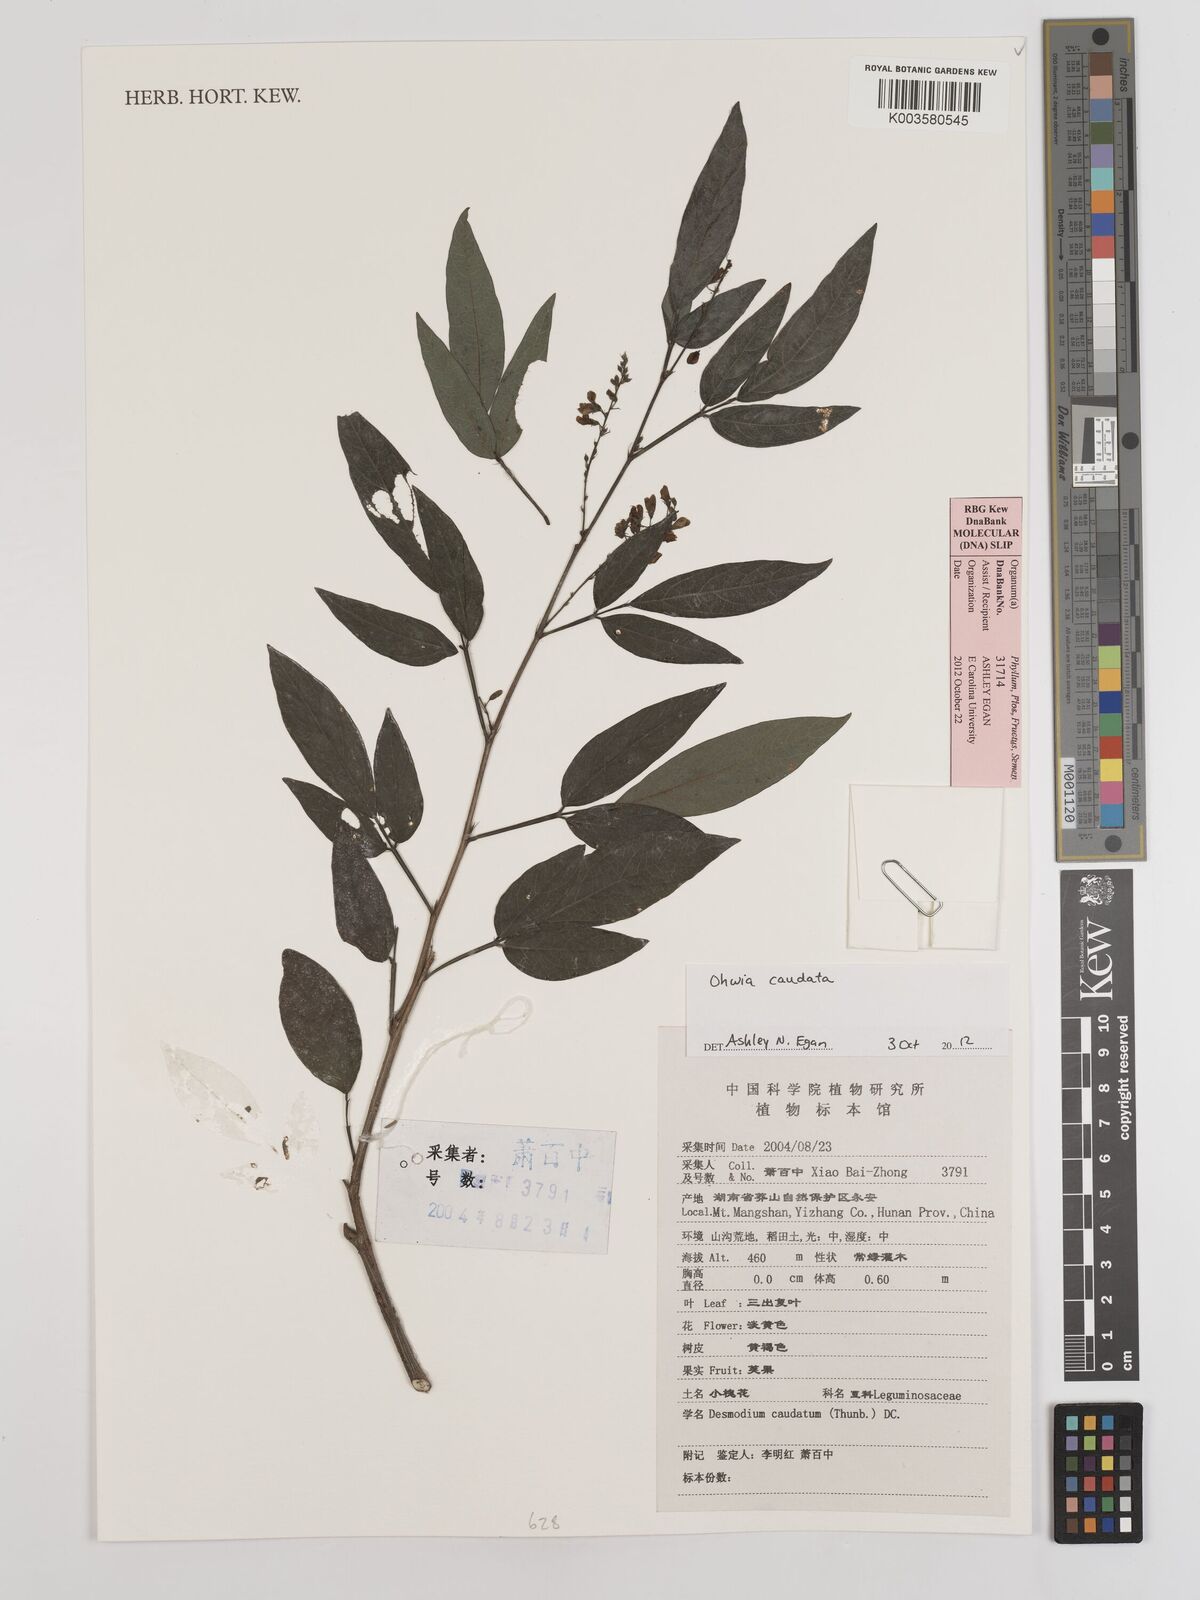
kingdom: Plantae
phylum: Tracheophyta
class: Magnoliopsida
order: Fabales
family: Fabaceae
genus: Ohwia
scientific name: Ohwia caudata
